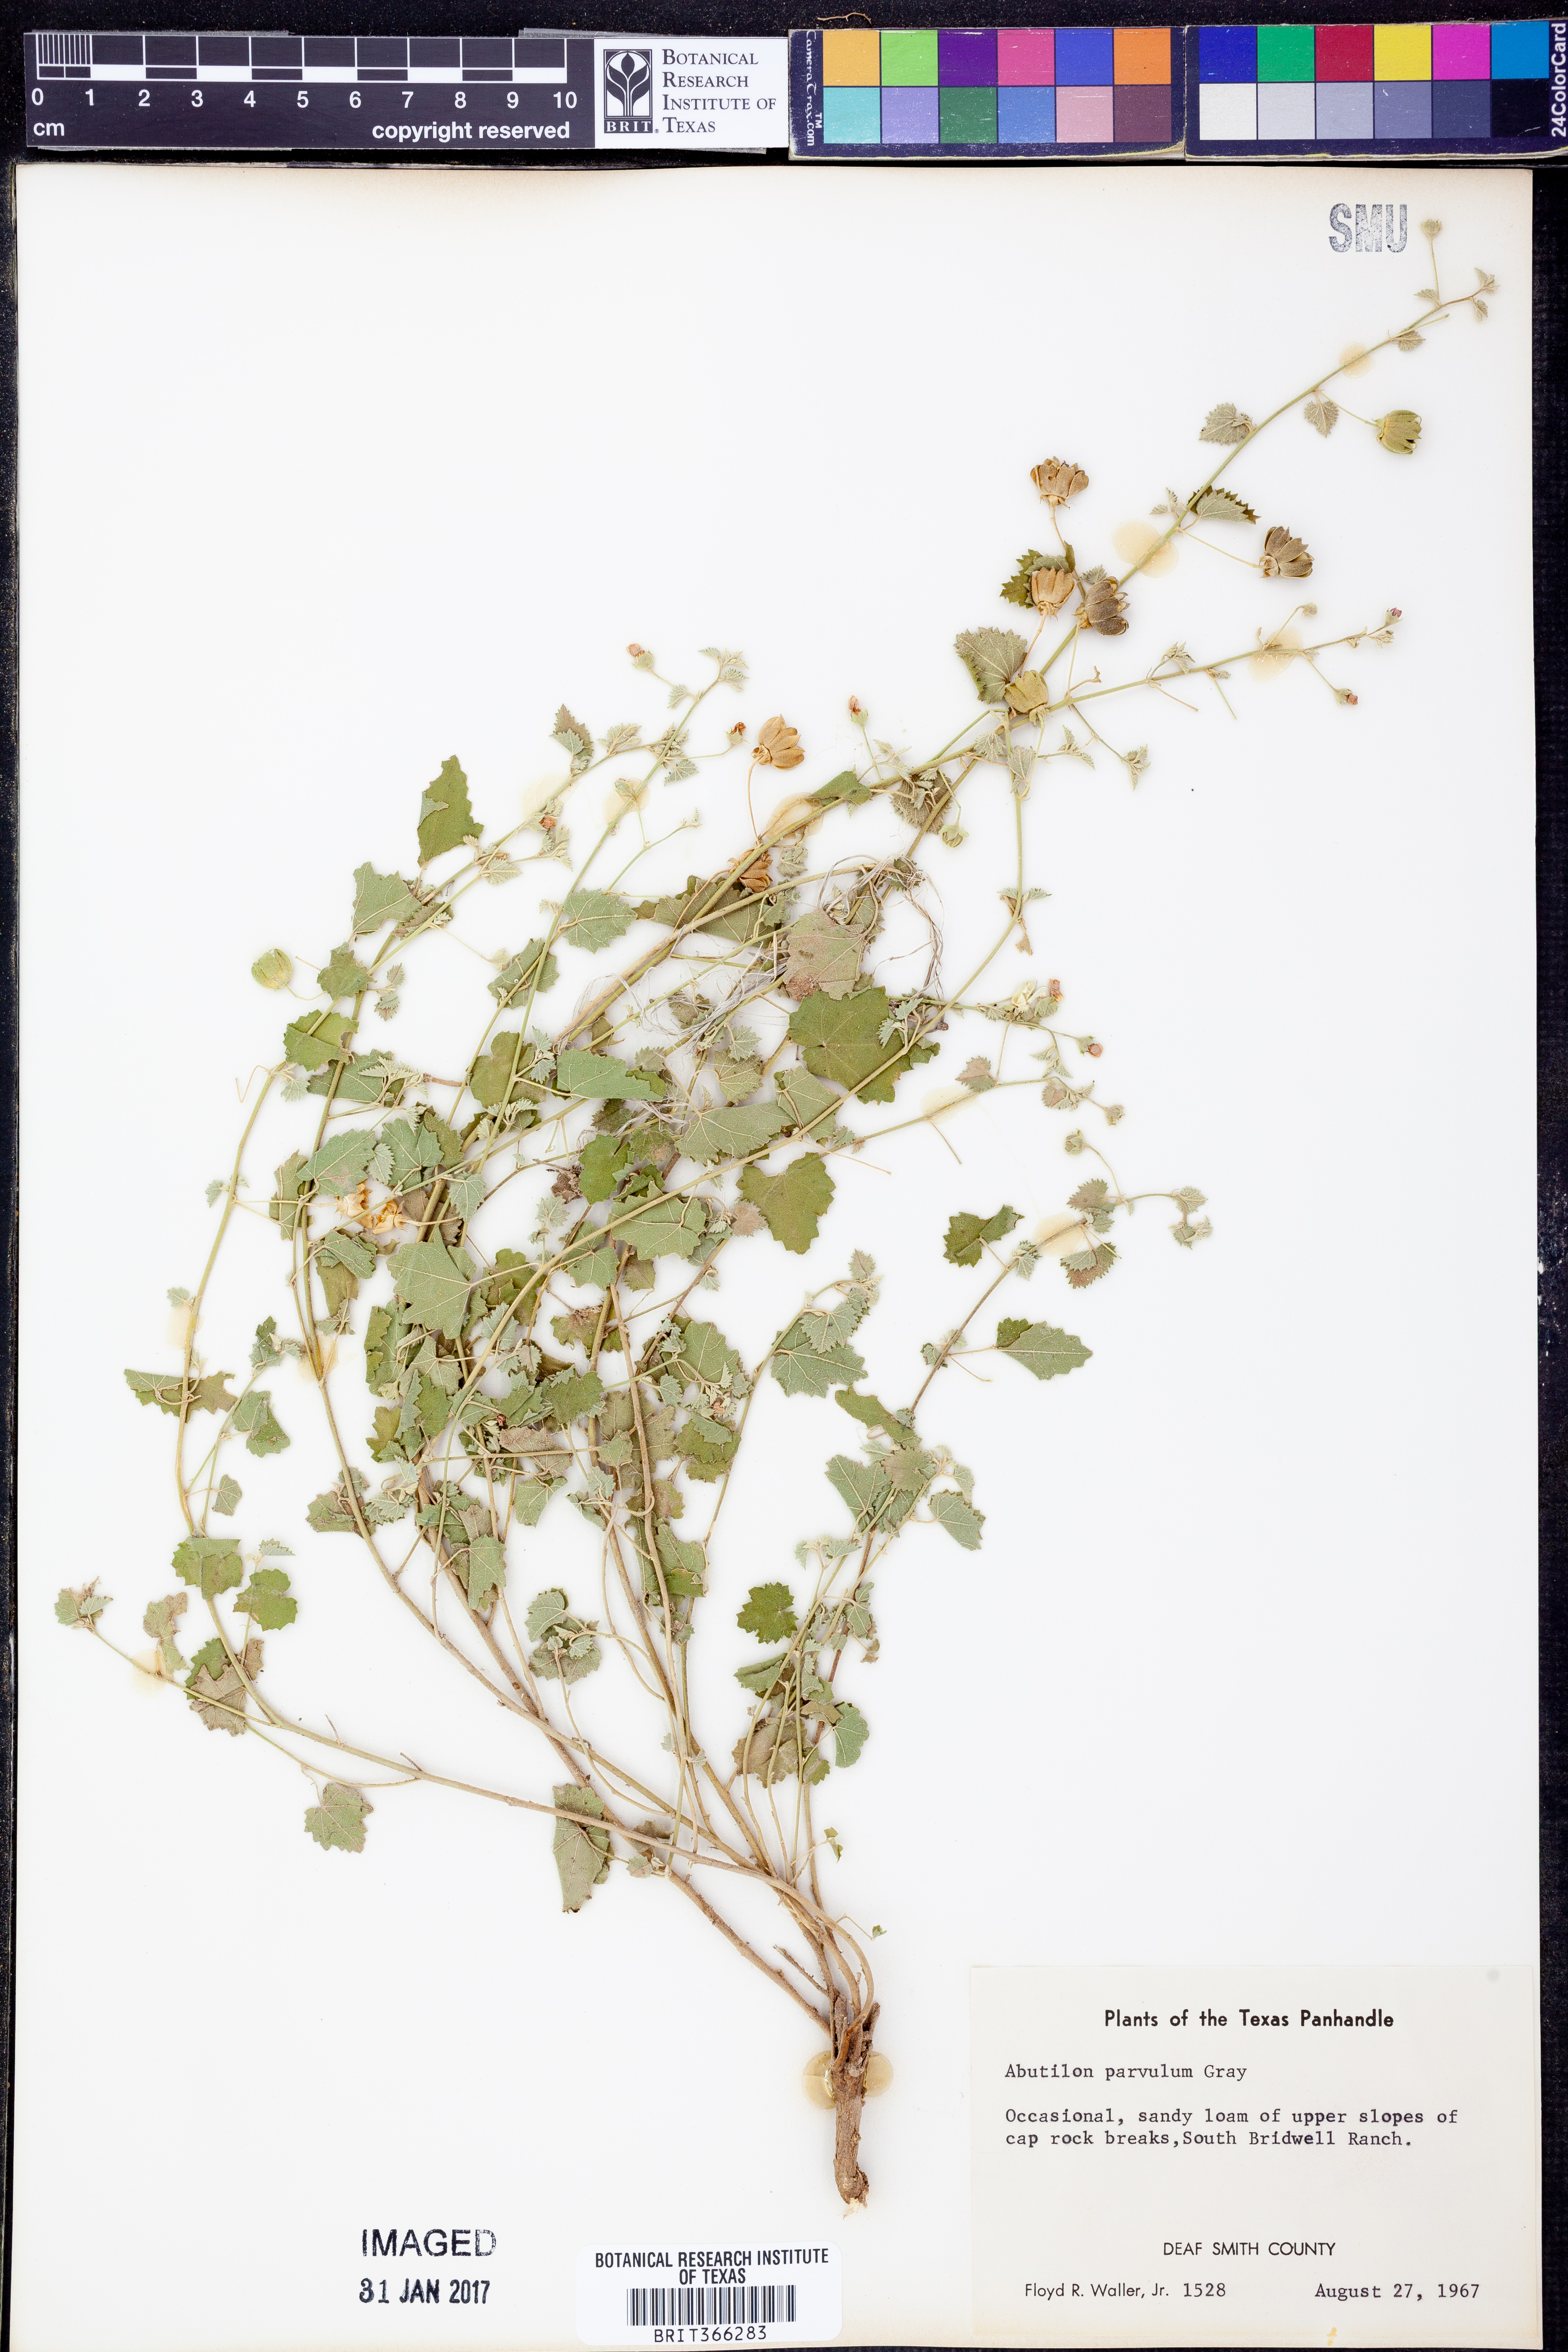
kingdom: Plantae
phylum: Tracheophyta
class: Magnoliopsida
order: Malvales
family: Malvaceae
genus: Abutilon
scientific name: Abutilon parvulum
